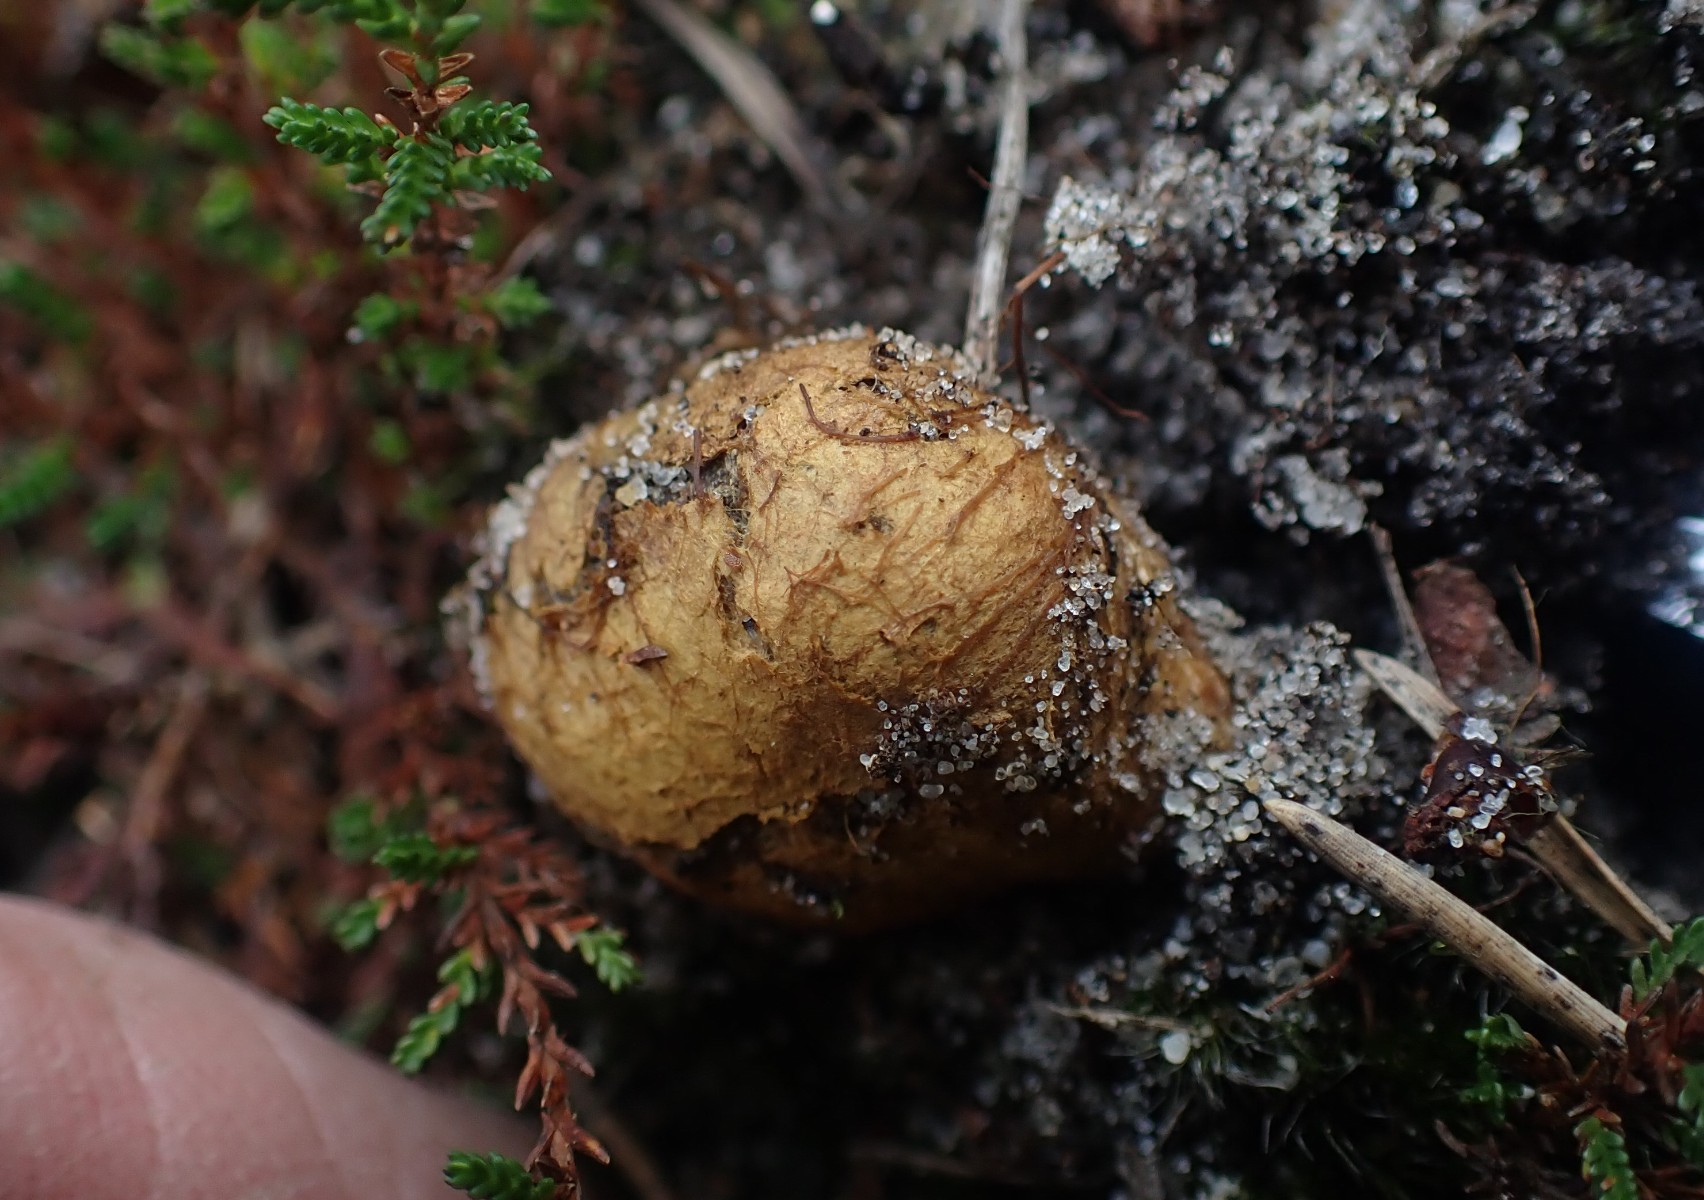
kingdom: Fungi
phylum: Basidiomycota
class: Agaricomycetes
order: Boletales
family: Rhizopogonaceae
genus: Rhizopogon
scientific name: Rhizopogon obtextus
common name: gul skægtrøffel
